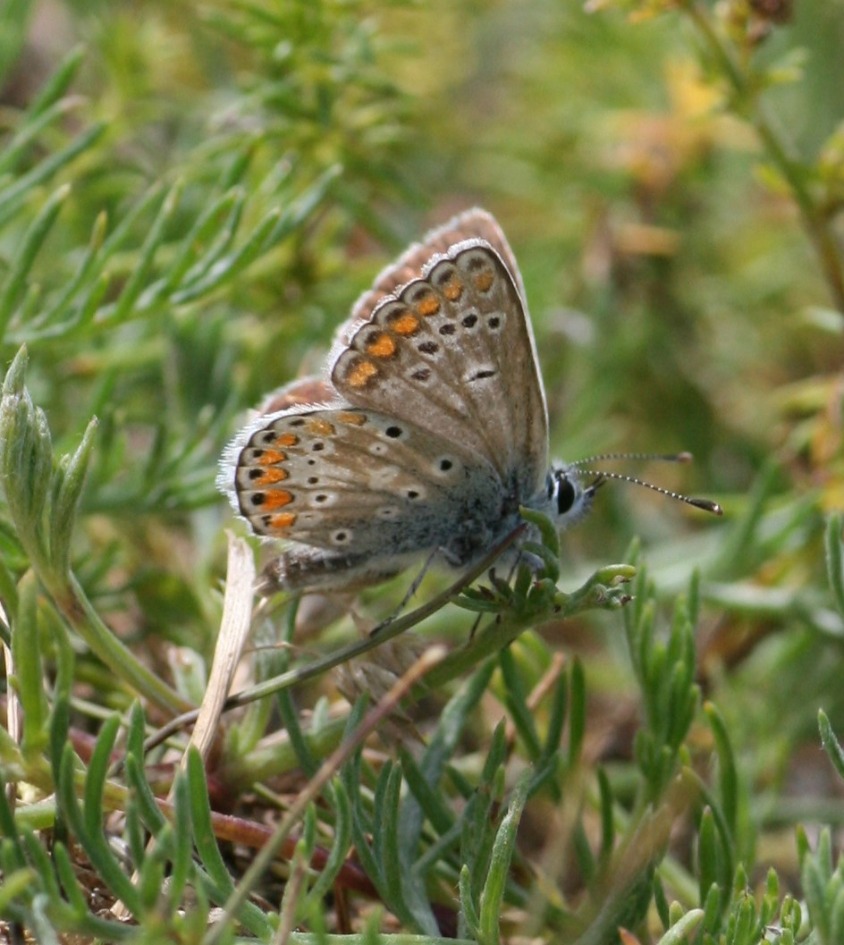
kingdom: Animalia
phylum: Arthropoda
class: Insecta
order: Lepidoptera
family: Lycaenidae
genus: Aricia
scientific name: Aricia agestis
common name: Rødplettet blåfugl
